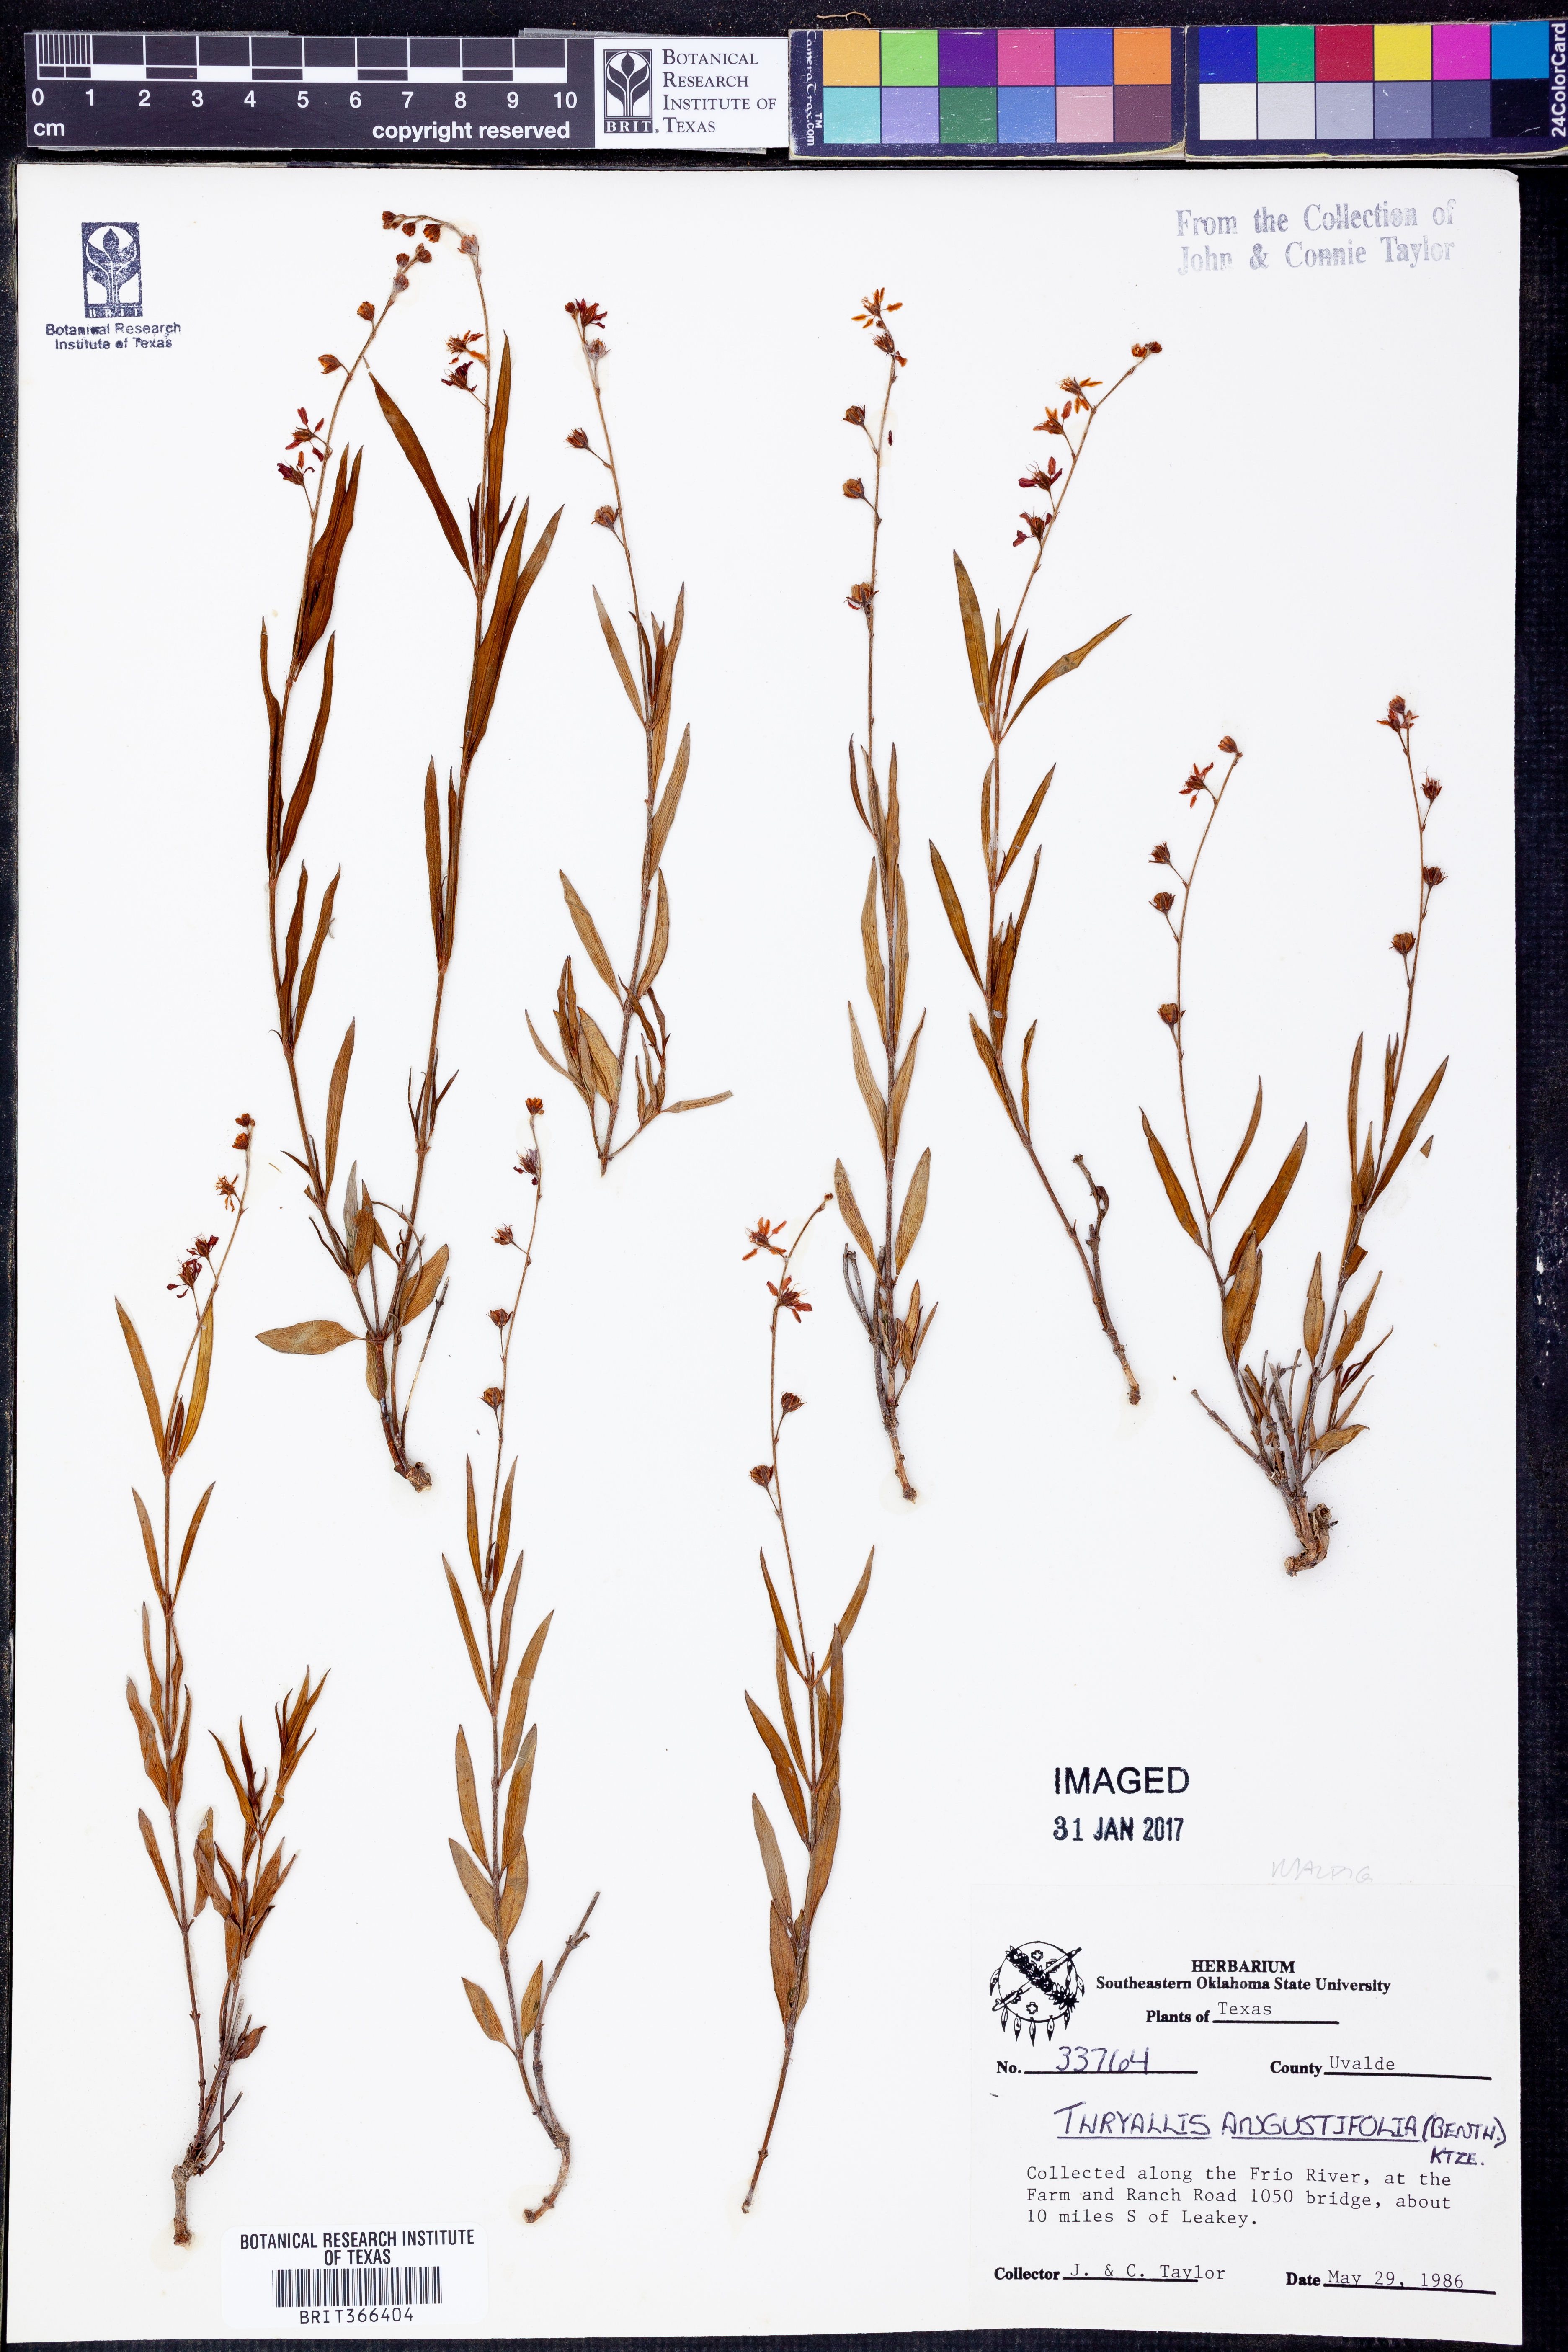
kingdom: Plantae
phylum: Tracheophyta
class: Magnoliopsida
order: Malpighiales
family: Malpighiaceae
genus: Galphimia
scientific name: Galphimia angustifolia
